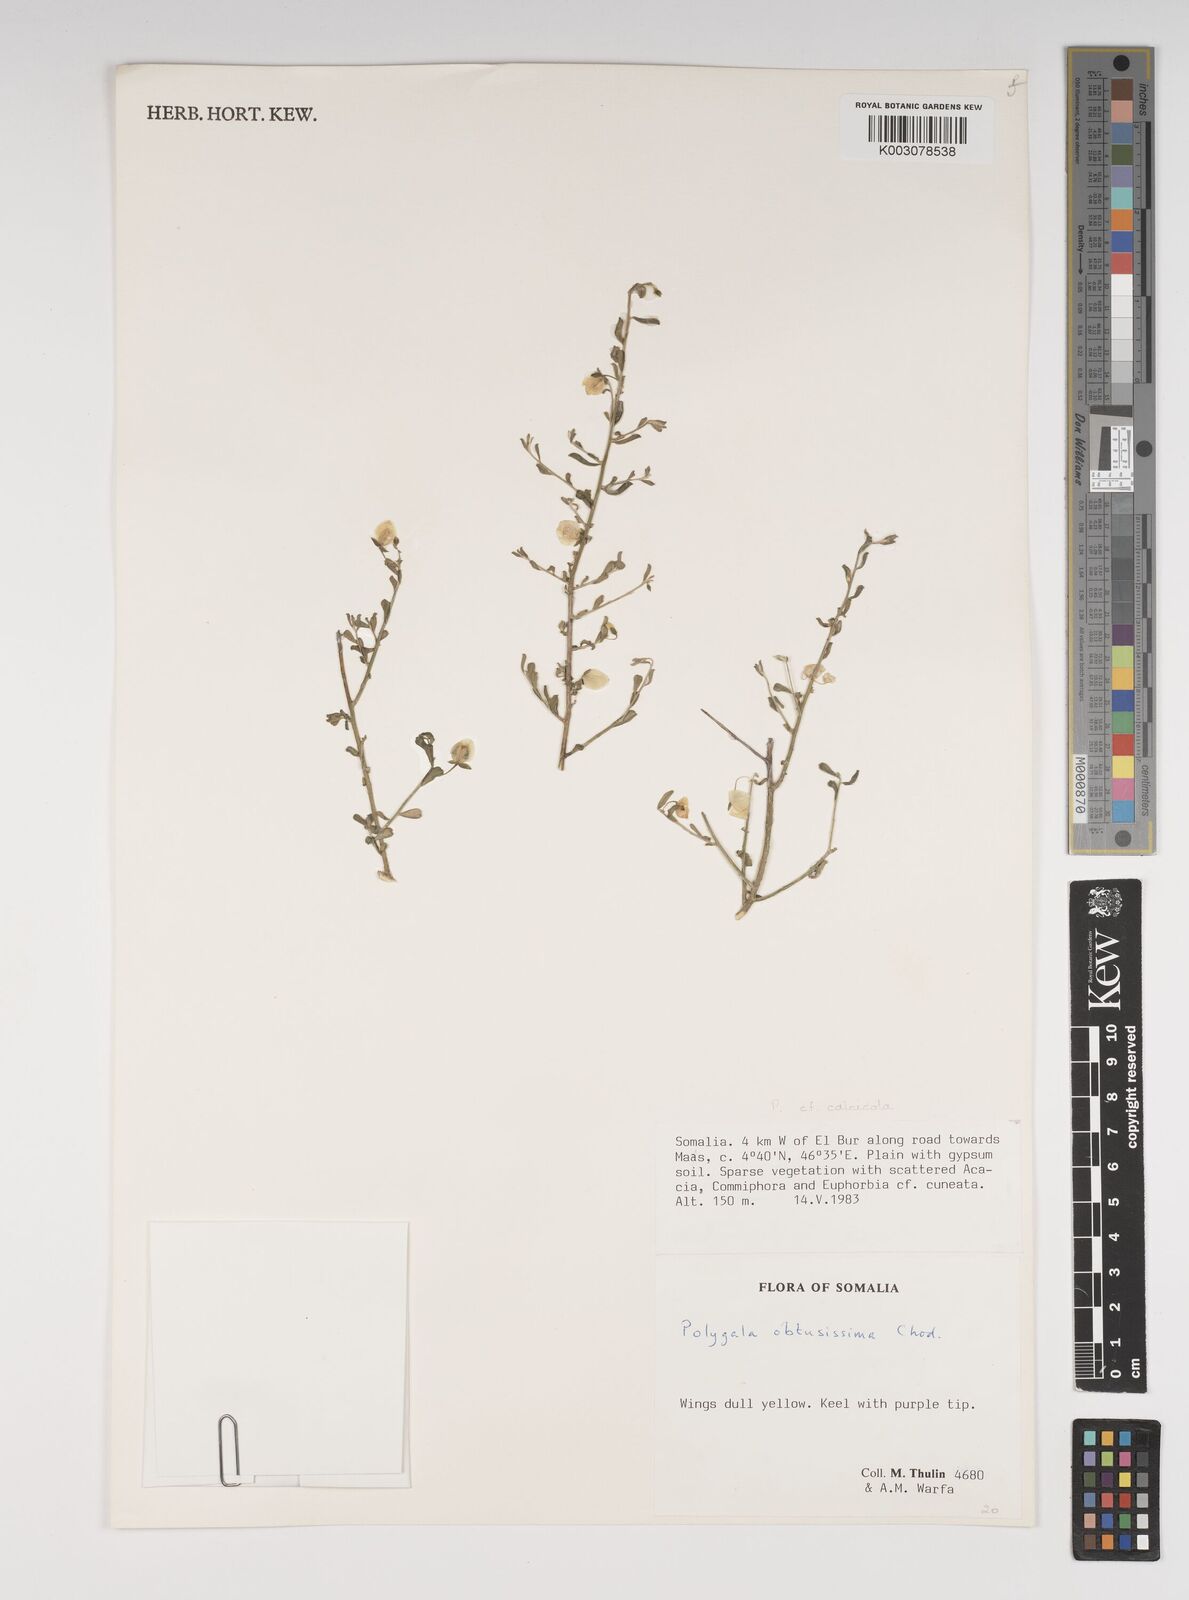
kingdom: Plantae
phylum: Tracheophyta
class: Magnoliopsida
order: Fabales
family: Polygalaceae
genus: Polygala
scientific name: Polygala senensis
